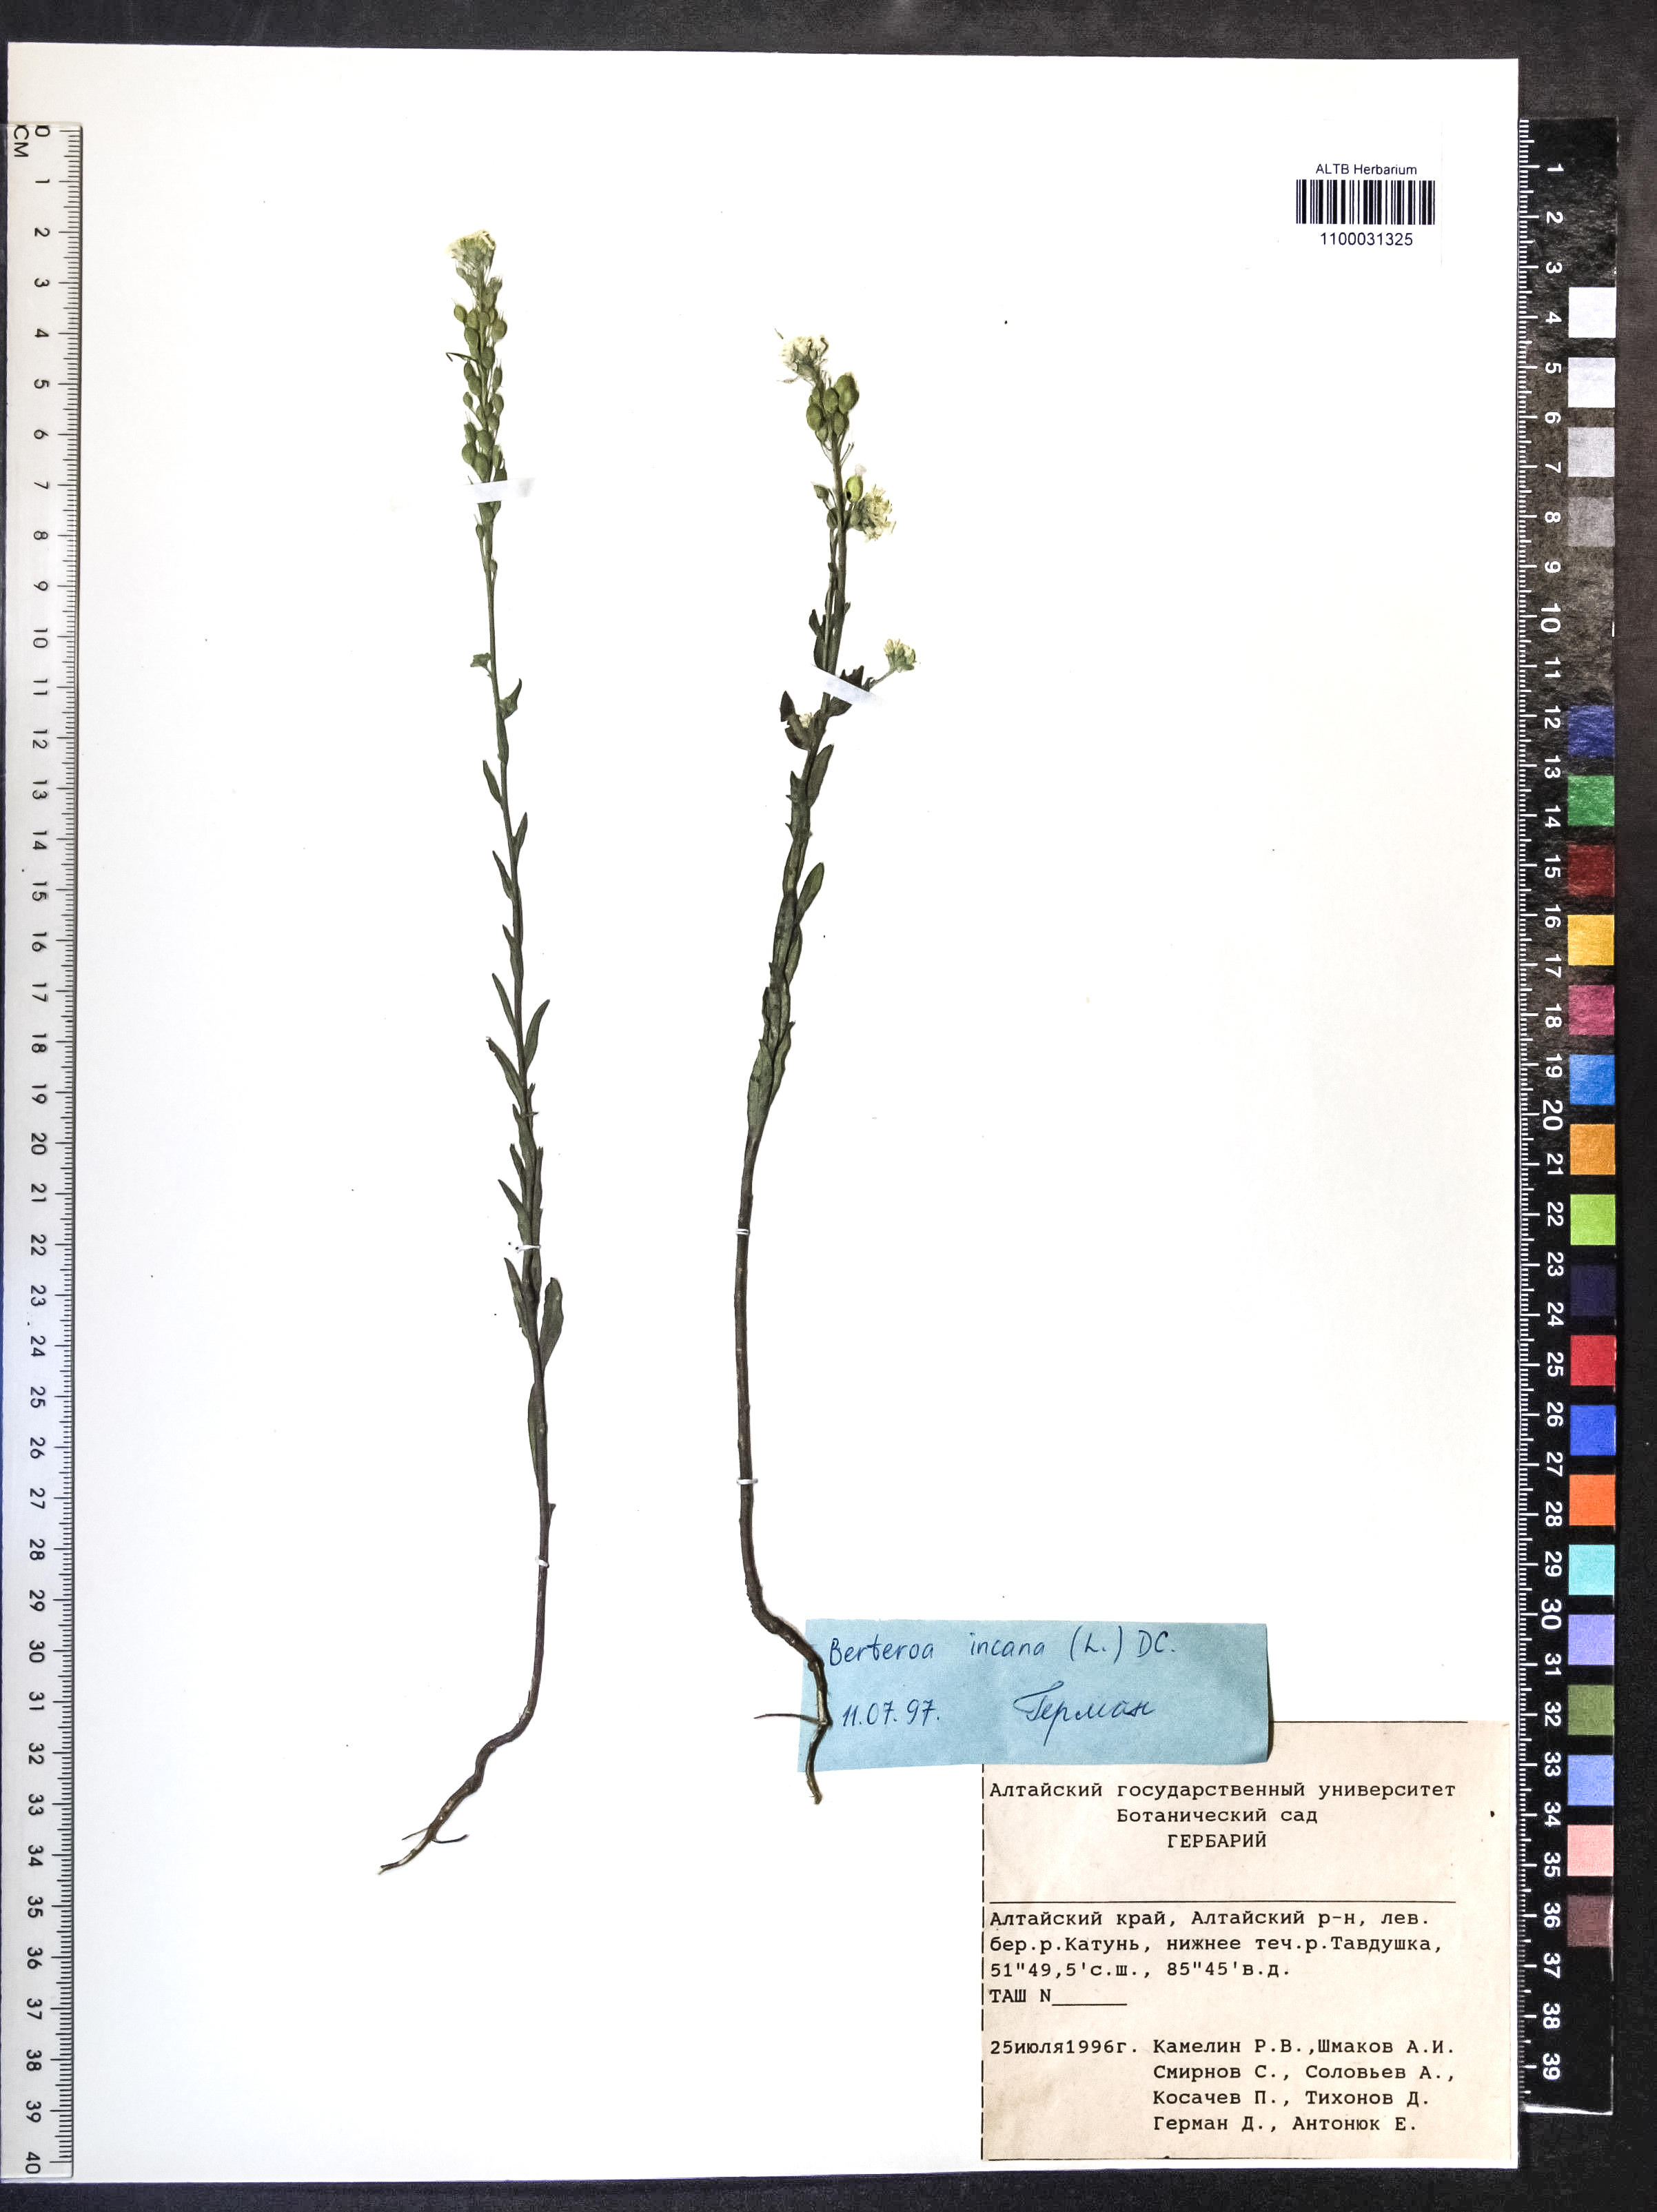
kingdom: Plantae
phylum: Tracheophyta
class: Magnoliopsida
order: Brassicales
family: Brassicaceae
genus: Berteroa
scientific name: Berteroa incana
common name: Hoary alison
